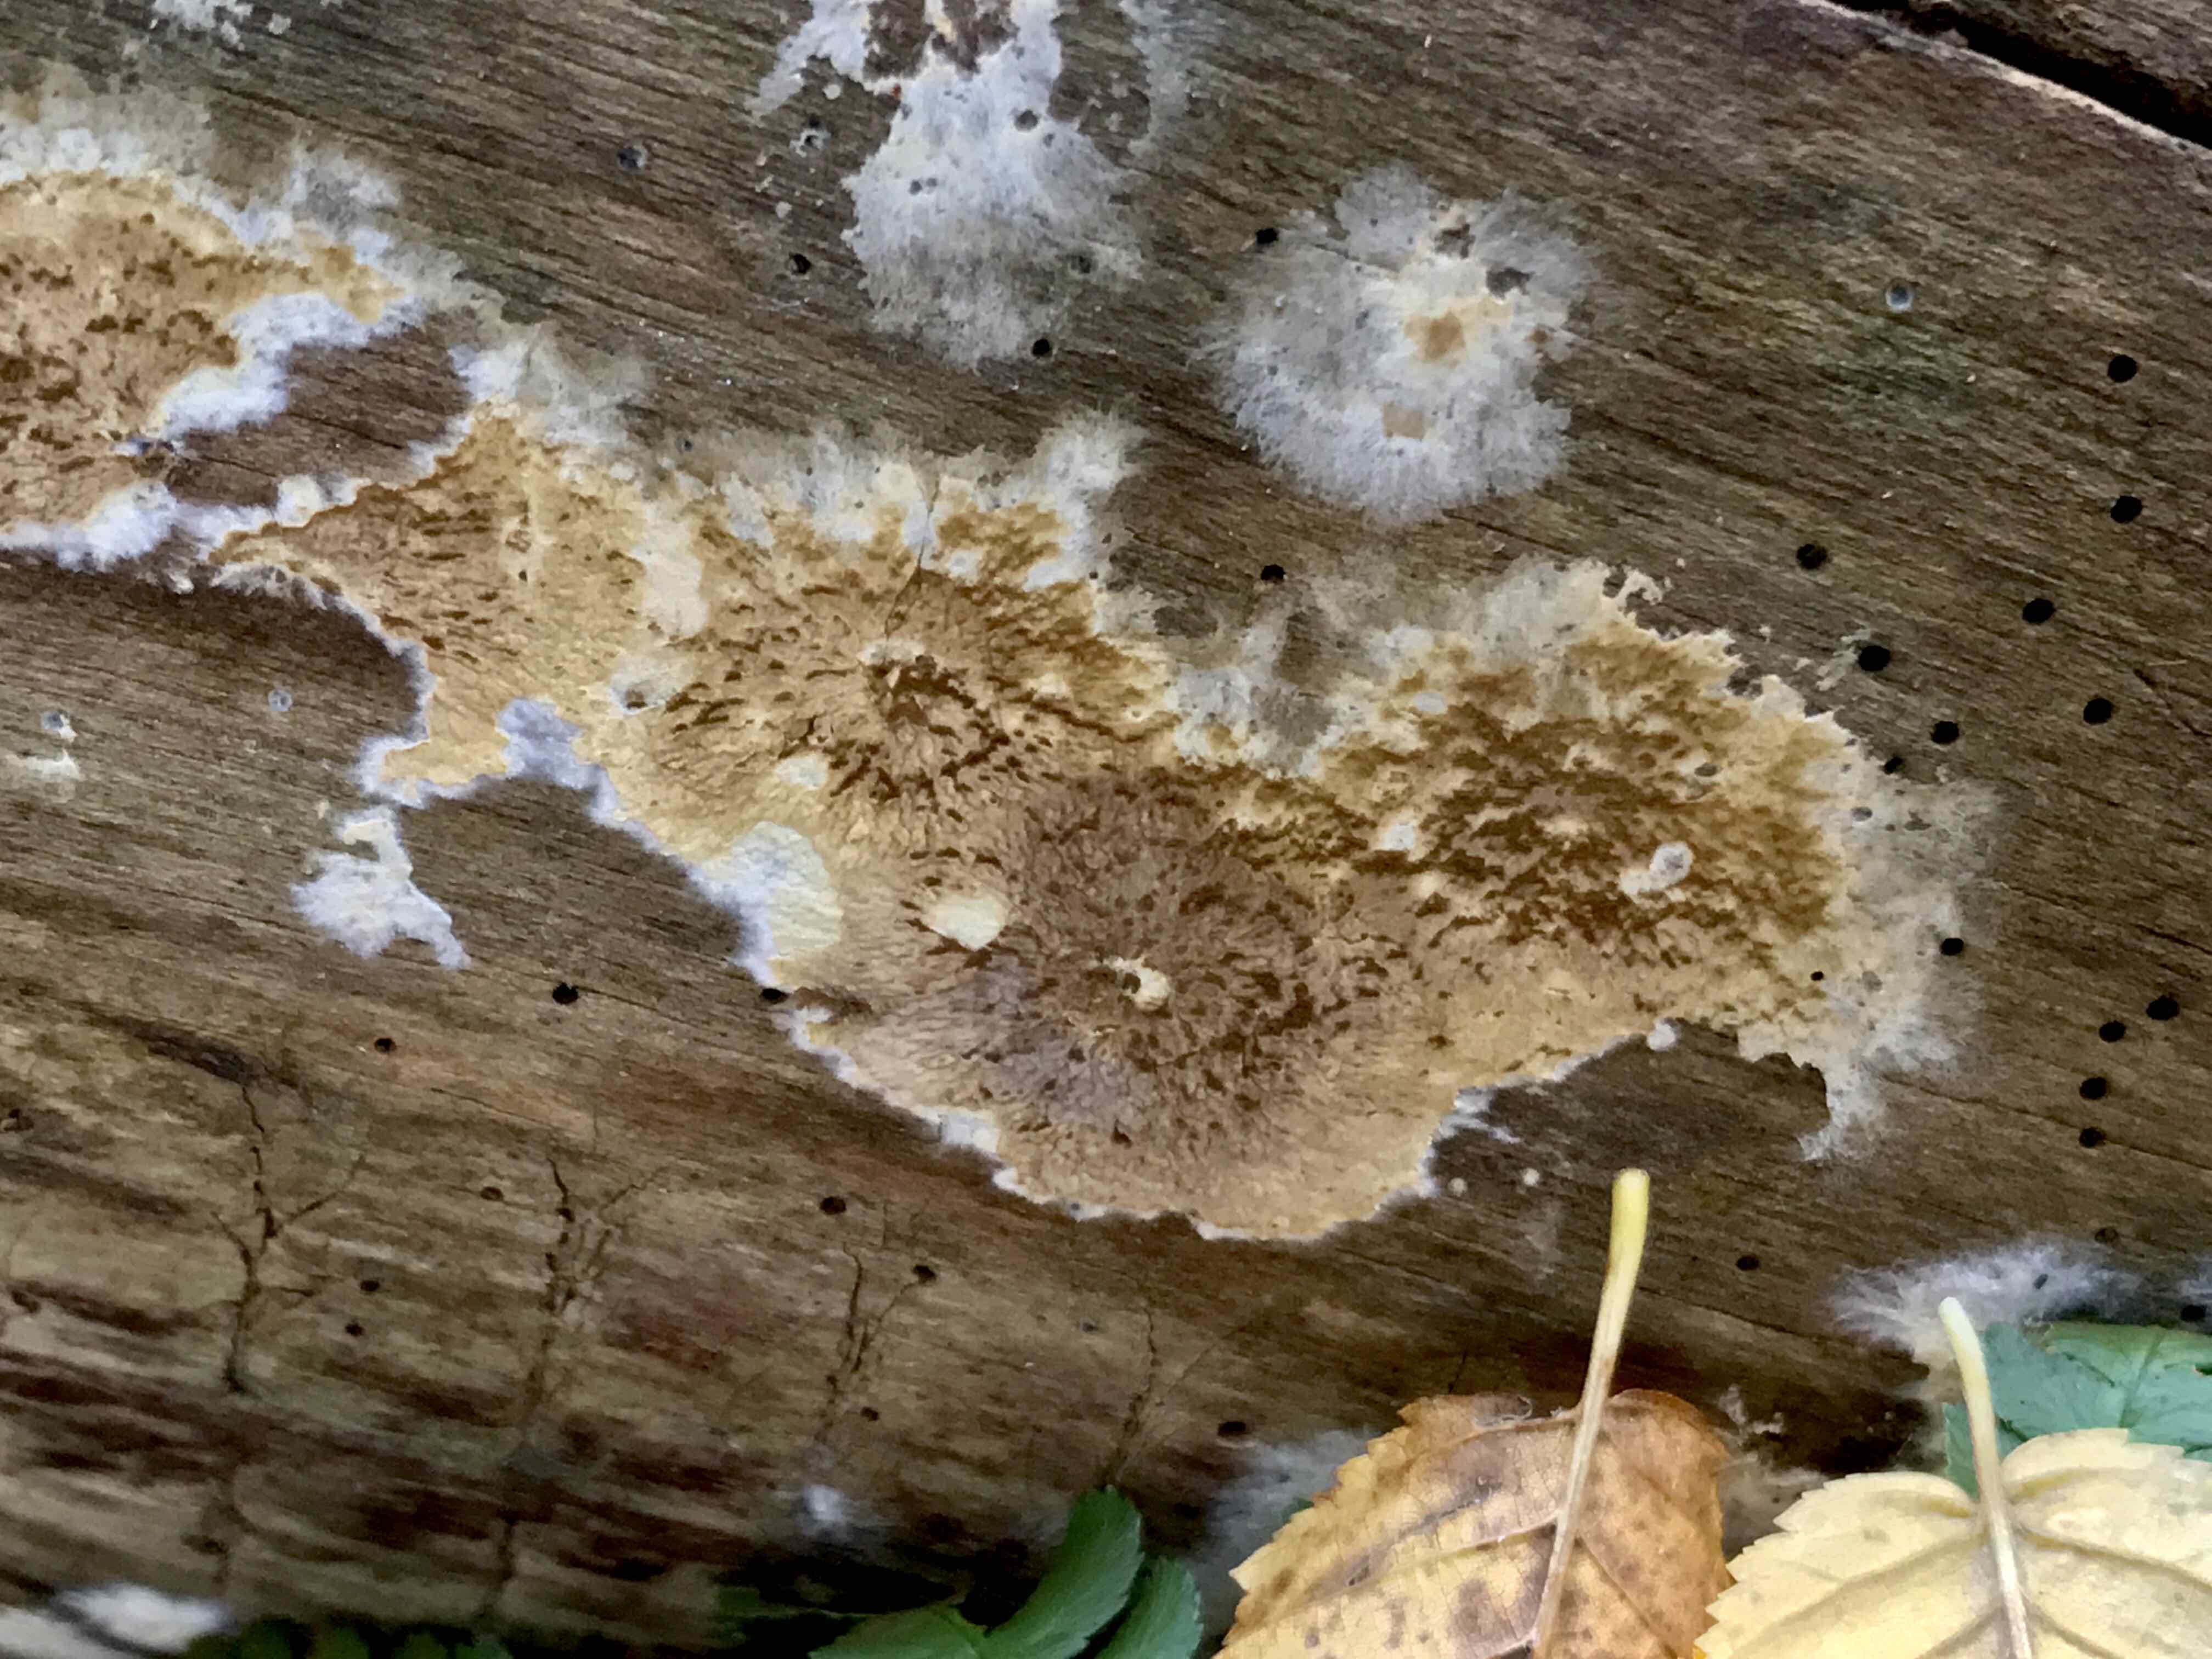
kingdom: Fungi
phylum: Basidiomycota
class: Agaricomycetes
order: Boletales
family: Coniophoraceae
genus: Coniophora
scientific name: Coniophora puteana
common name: gul tømmersvamp
